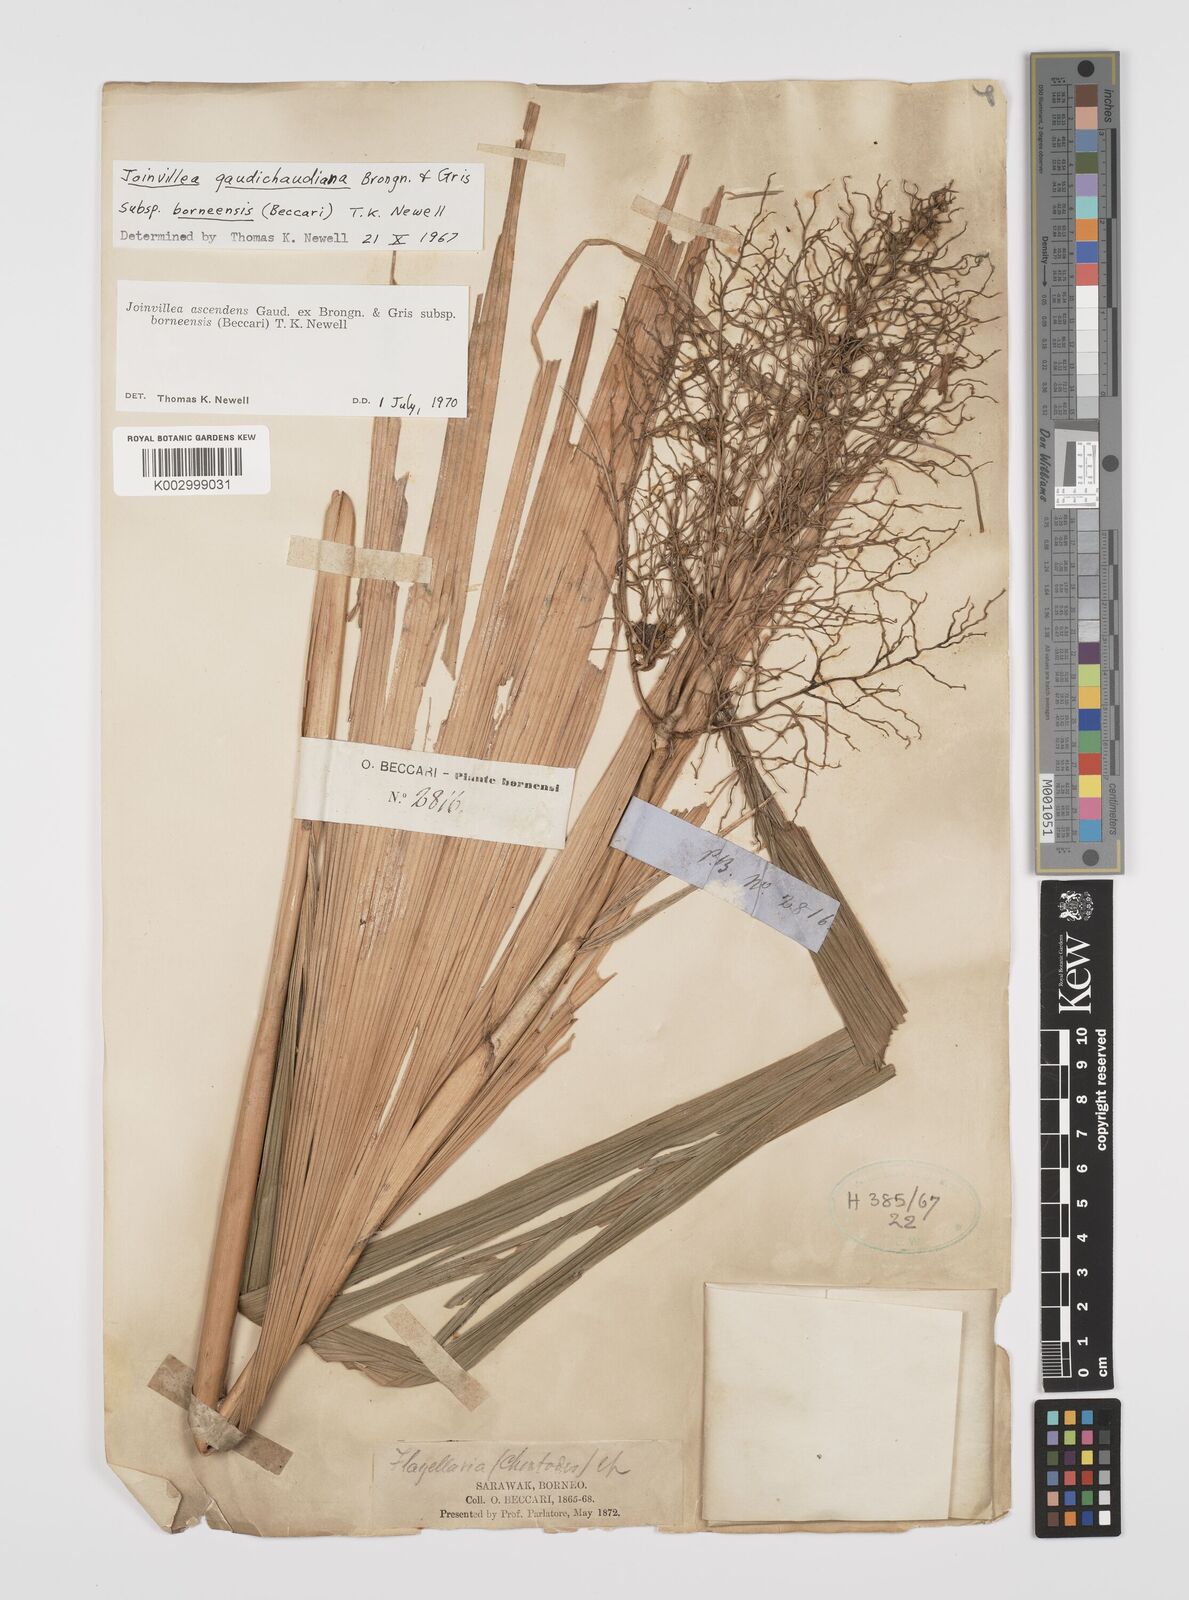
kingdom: Plantae
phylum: Tracheophyta
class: Liliopsida
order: Poales
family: Joinvilleaceae
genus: Joinvillea
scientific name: Joinvillea borneensis
